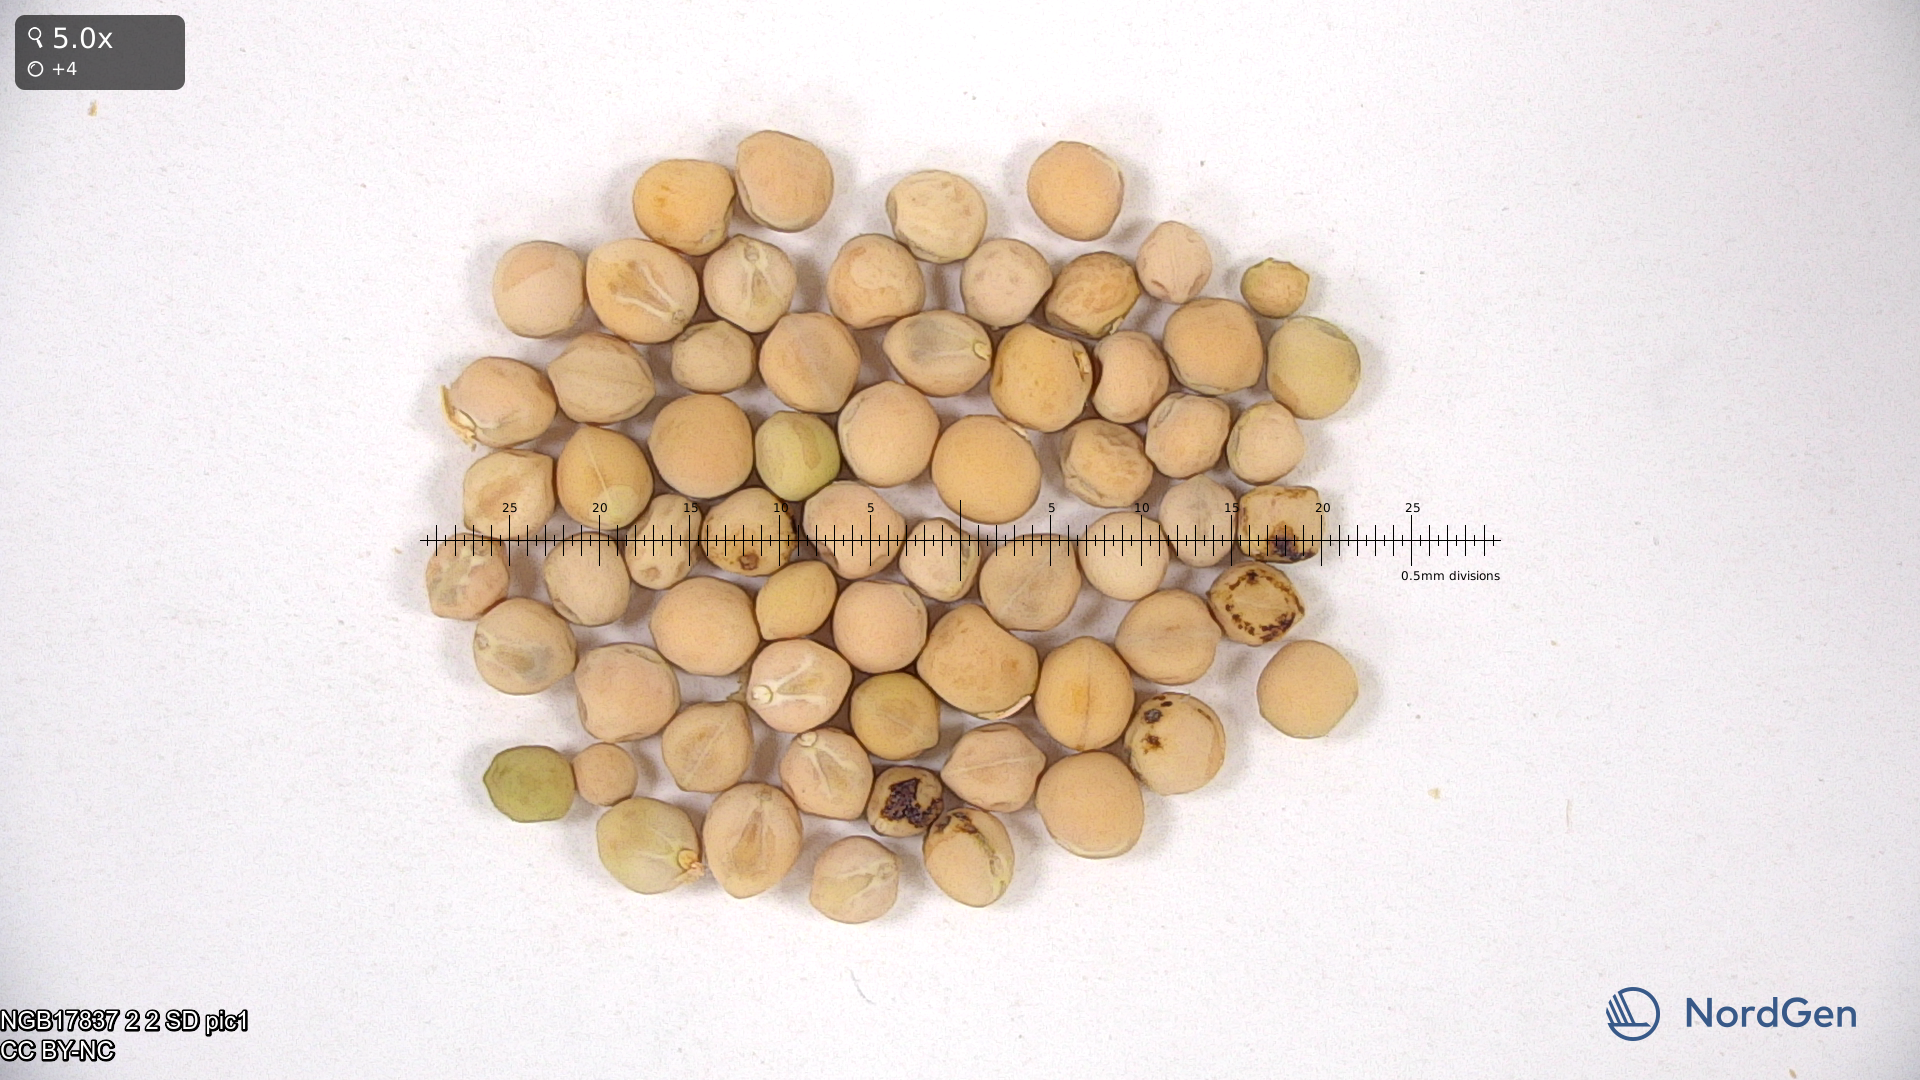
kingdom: Plantae
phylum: Tracheophyta
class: Magnoliopsida
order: Fabales
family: Fabaceae
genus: Lathyrus
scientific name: Lathyrus oleraceus
